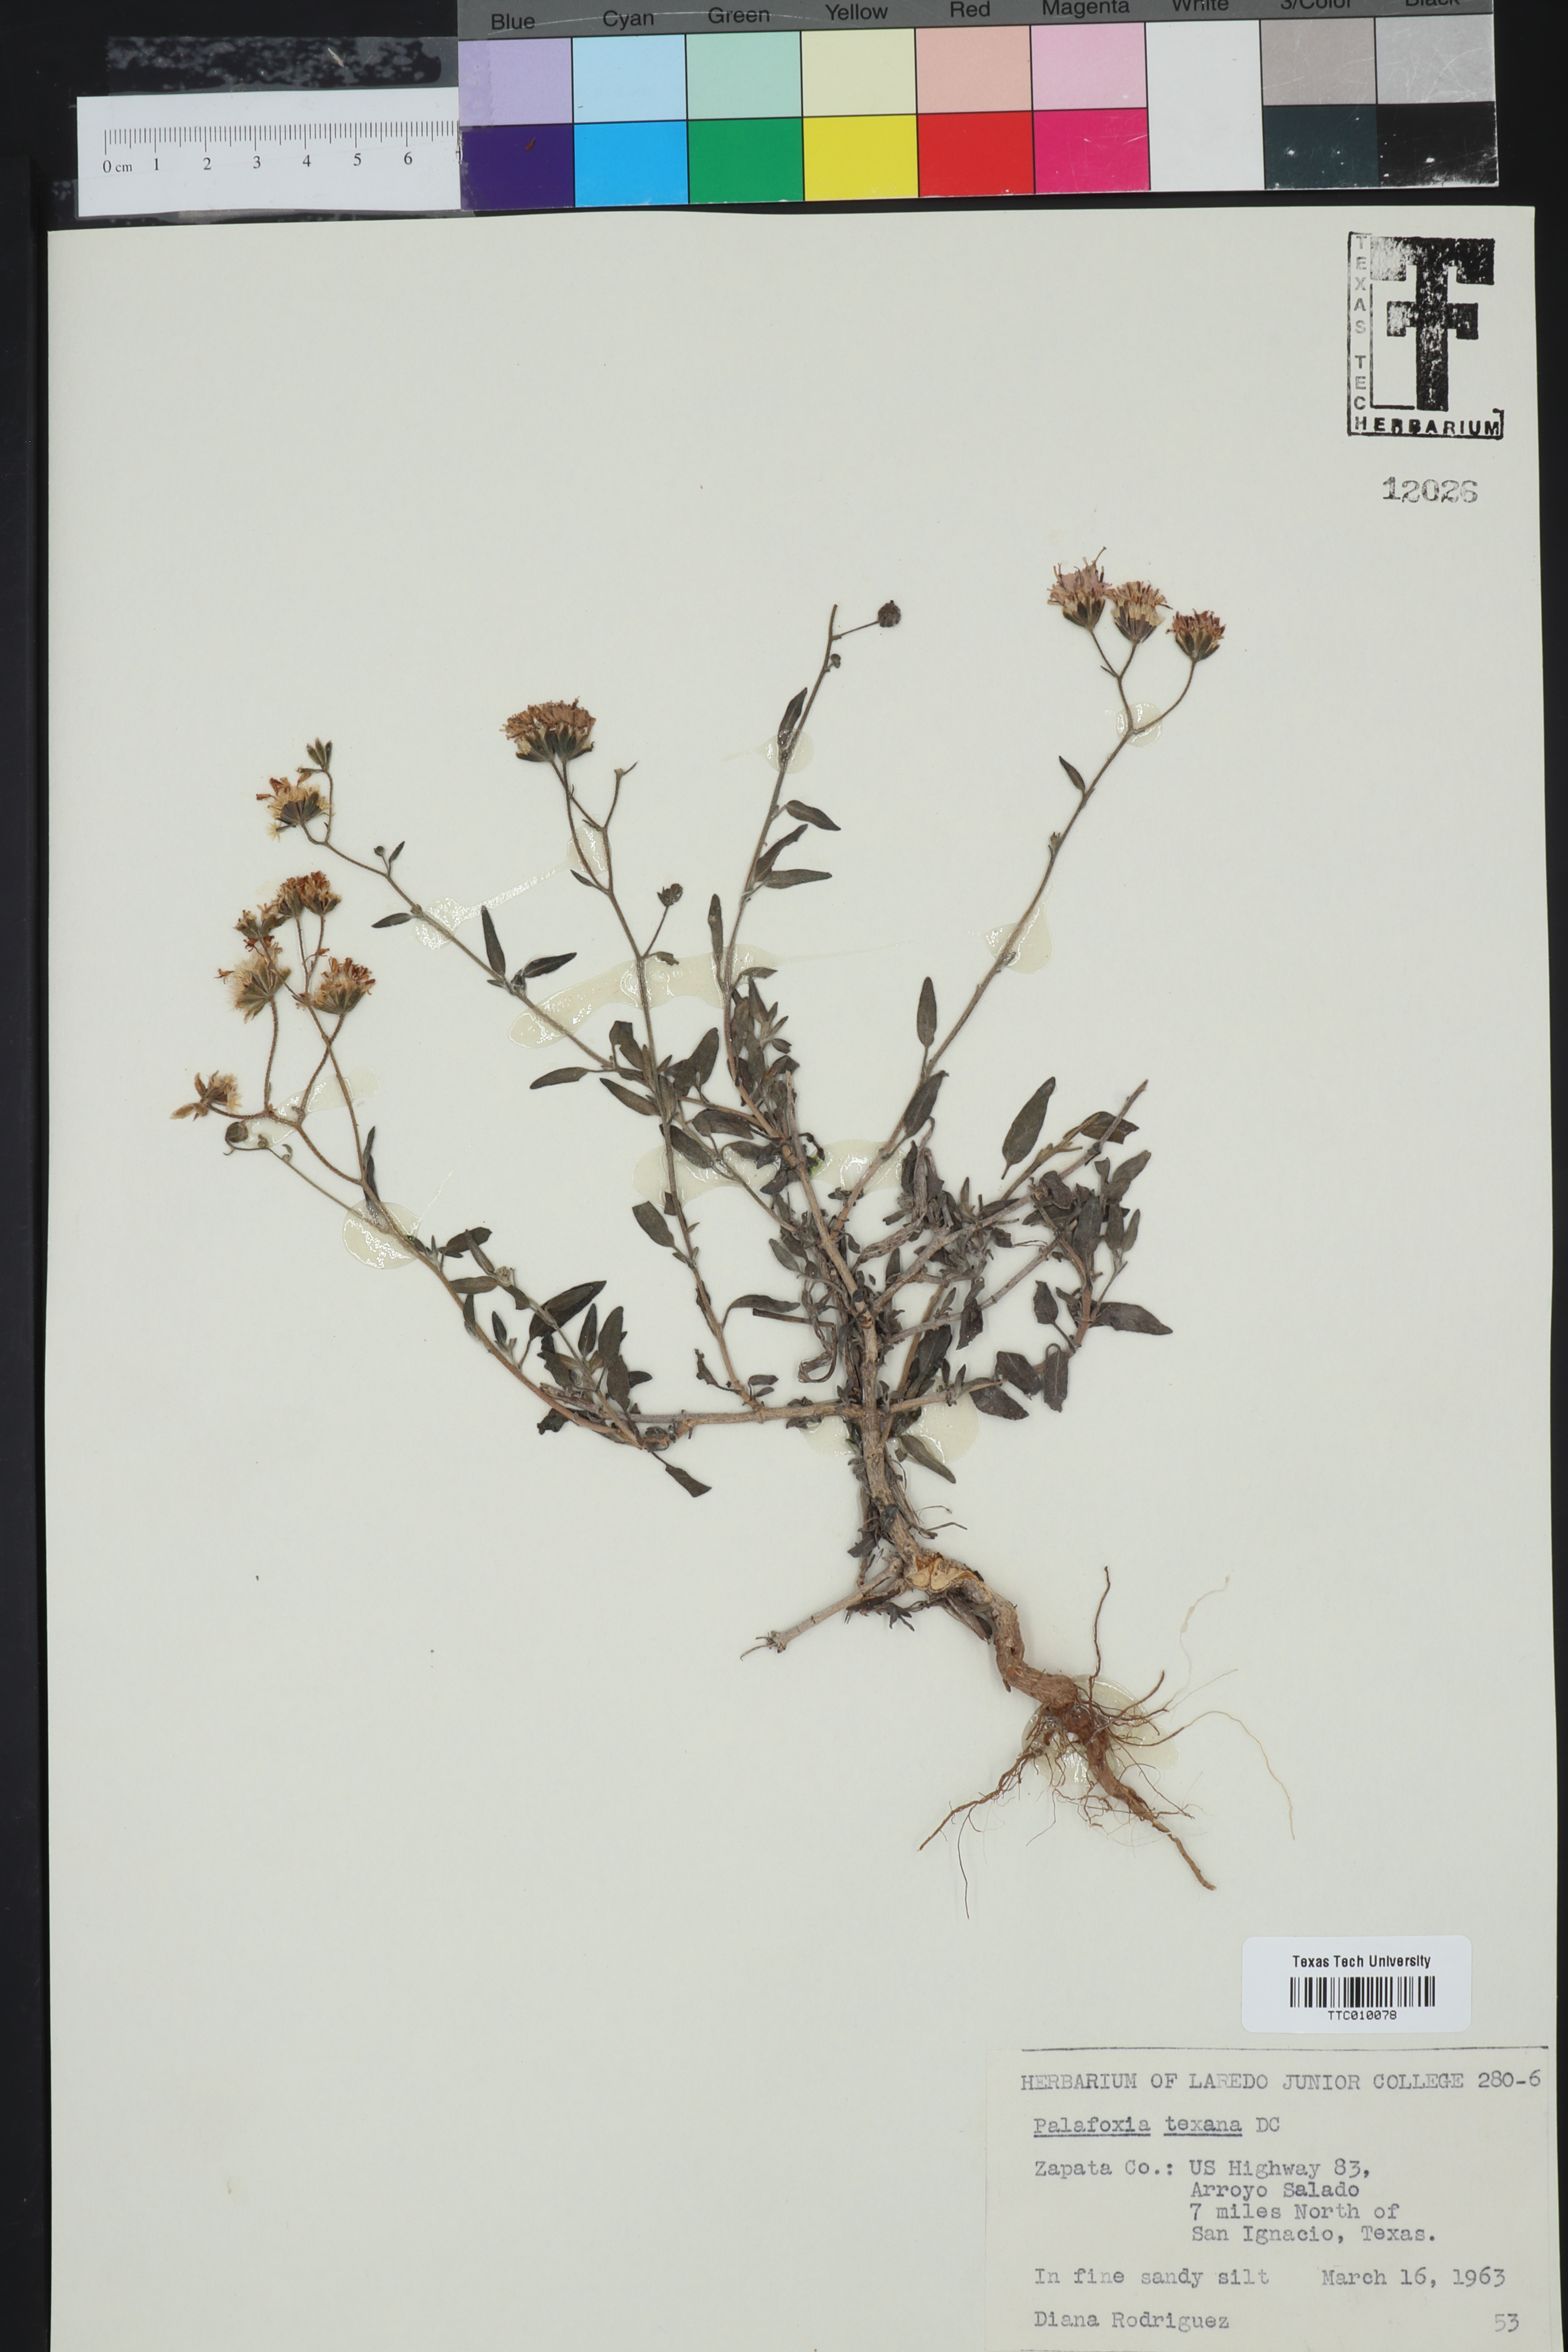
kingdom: Plantae
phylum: Tracheophyta
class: Magnoliopsida
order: Asterales
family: Asteraceae
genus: Palafoxia
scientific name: Palafoxia texana
